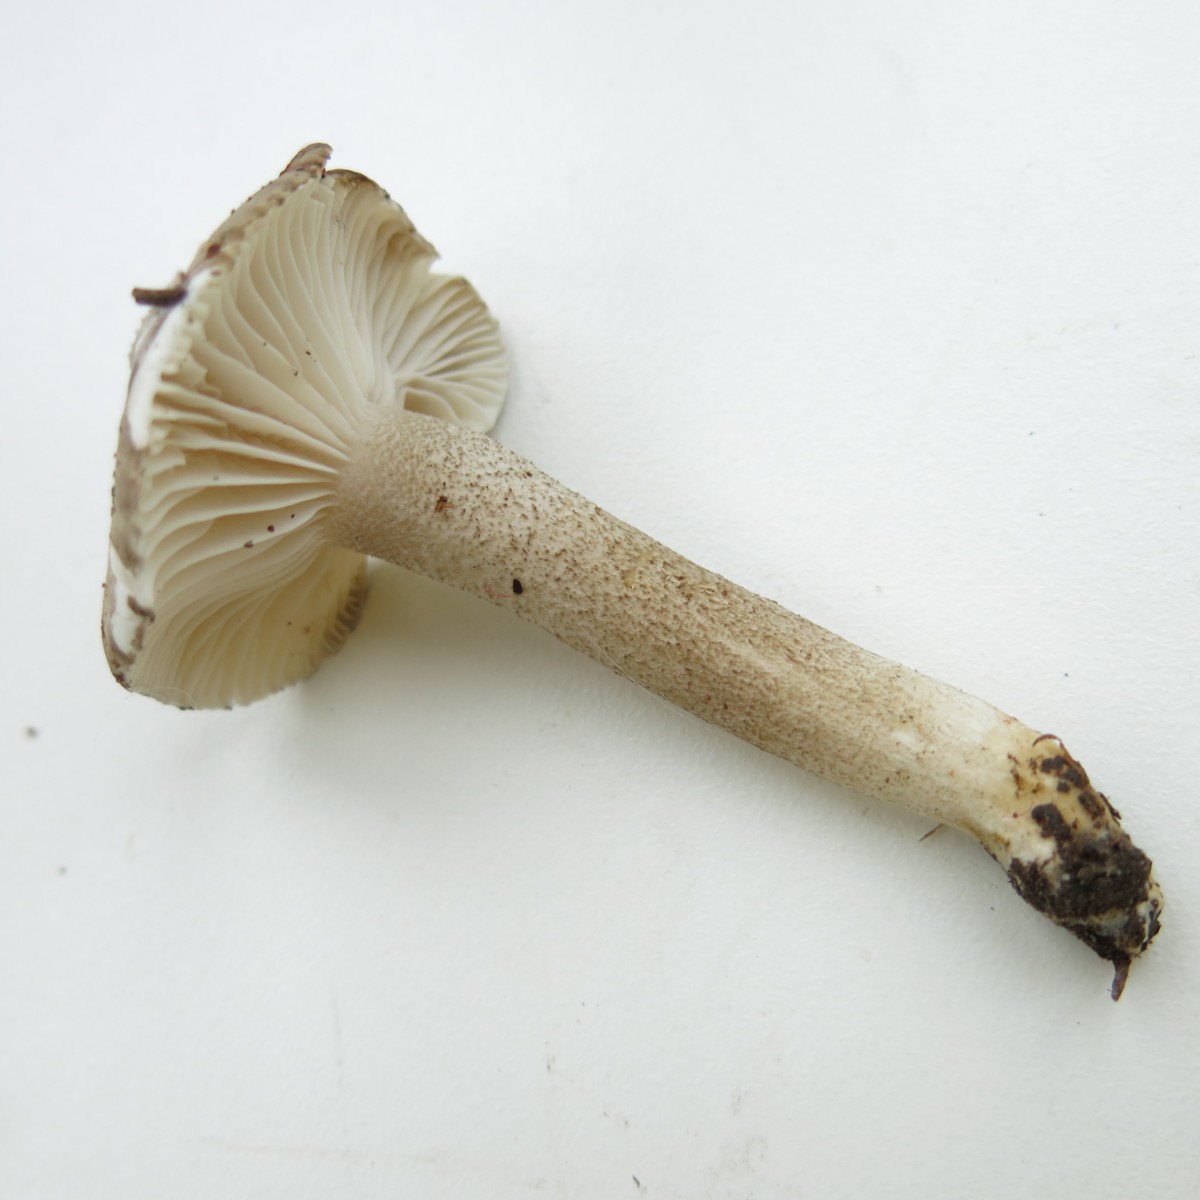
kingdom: Fungi
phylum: Basidiomycota
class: Agaricomycetes
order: Agaricales
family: Hygrophoraceae
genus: Hygrophorus
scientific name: Hygrophorus pustulatus
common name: mørkprikket sneglehat
